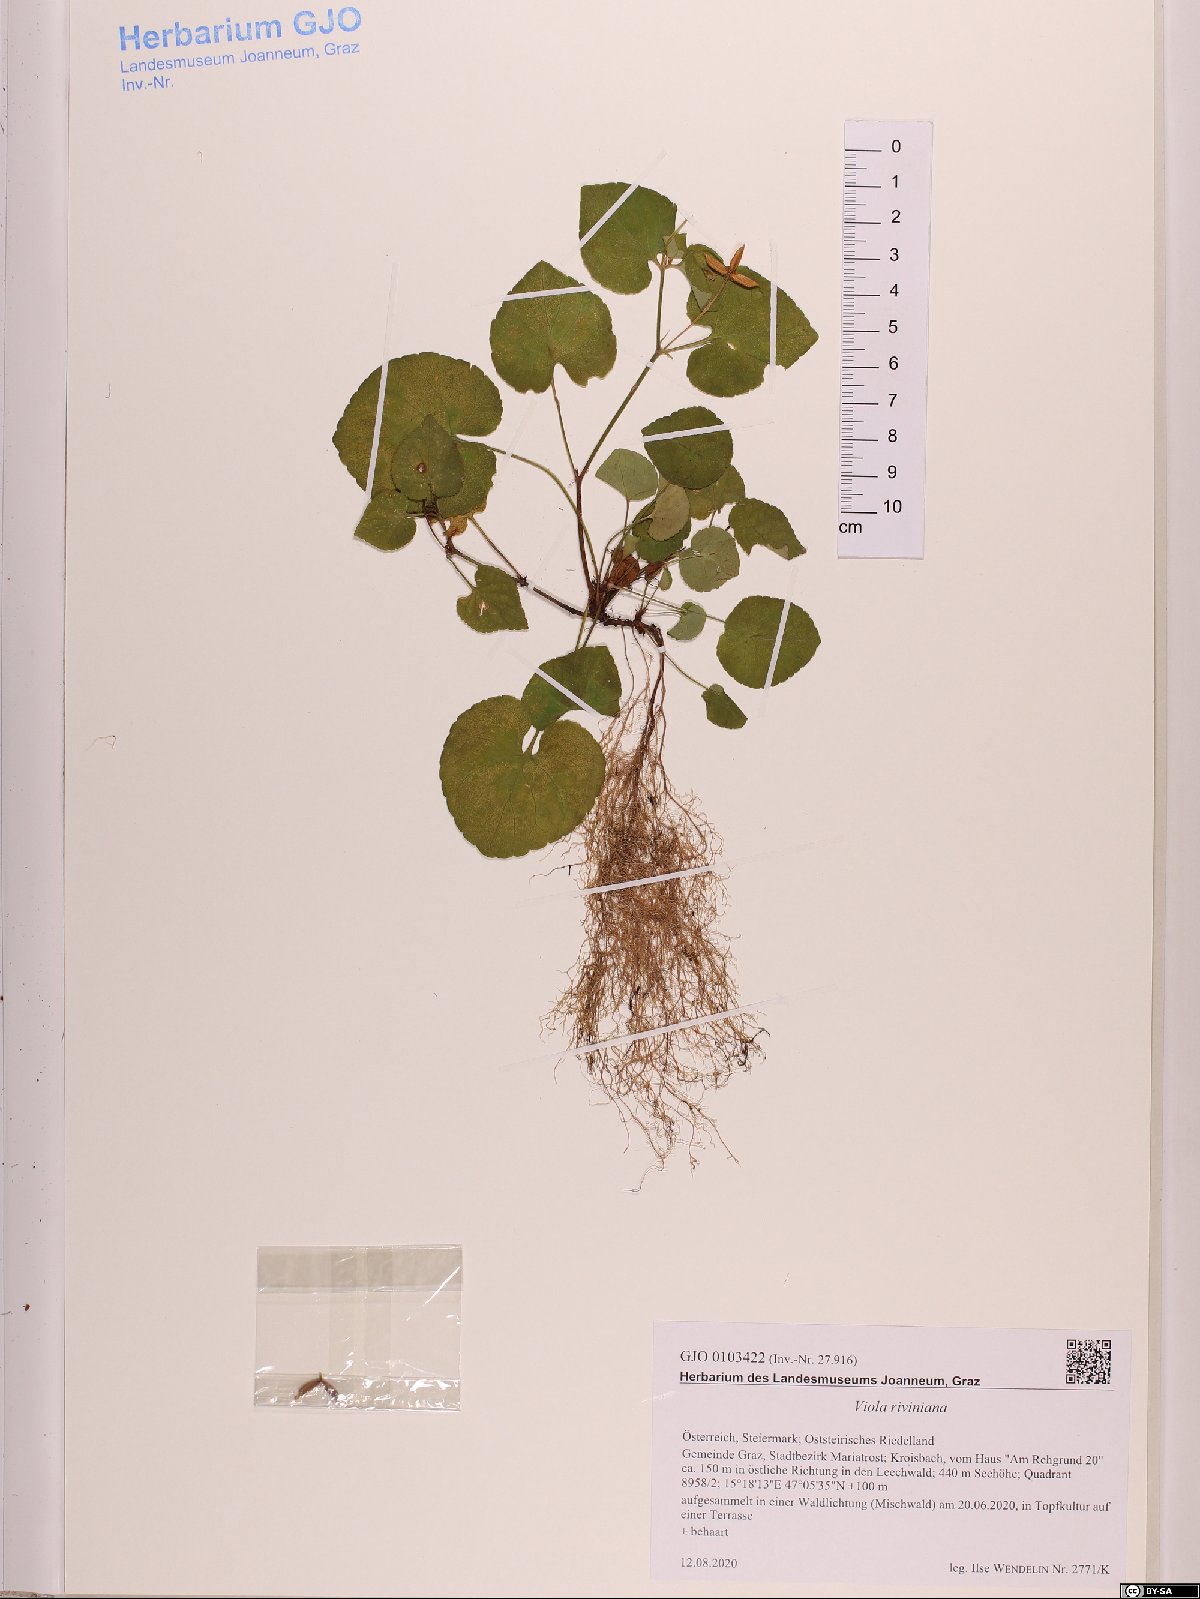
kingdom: Plantae
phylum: Tracheophyta
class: Magnoliopsida
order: Malpighiales
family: Violaceae
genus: Viola
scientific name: Viola riviniana
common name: Common dog-violet
